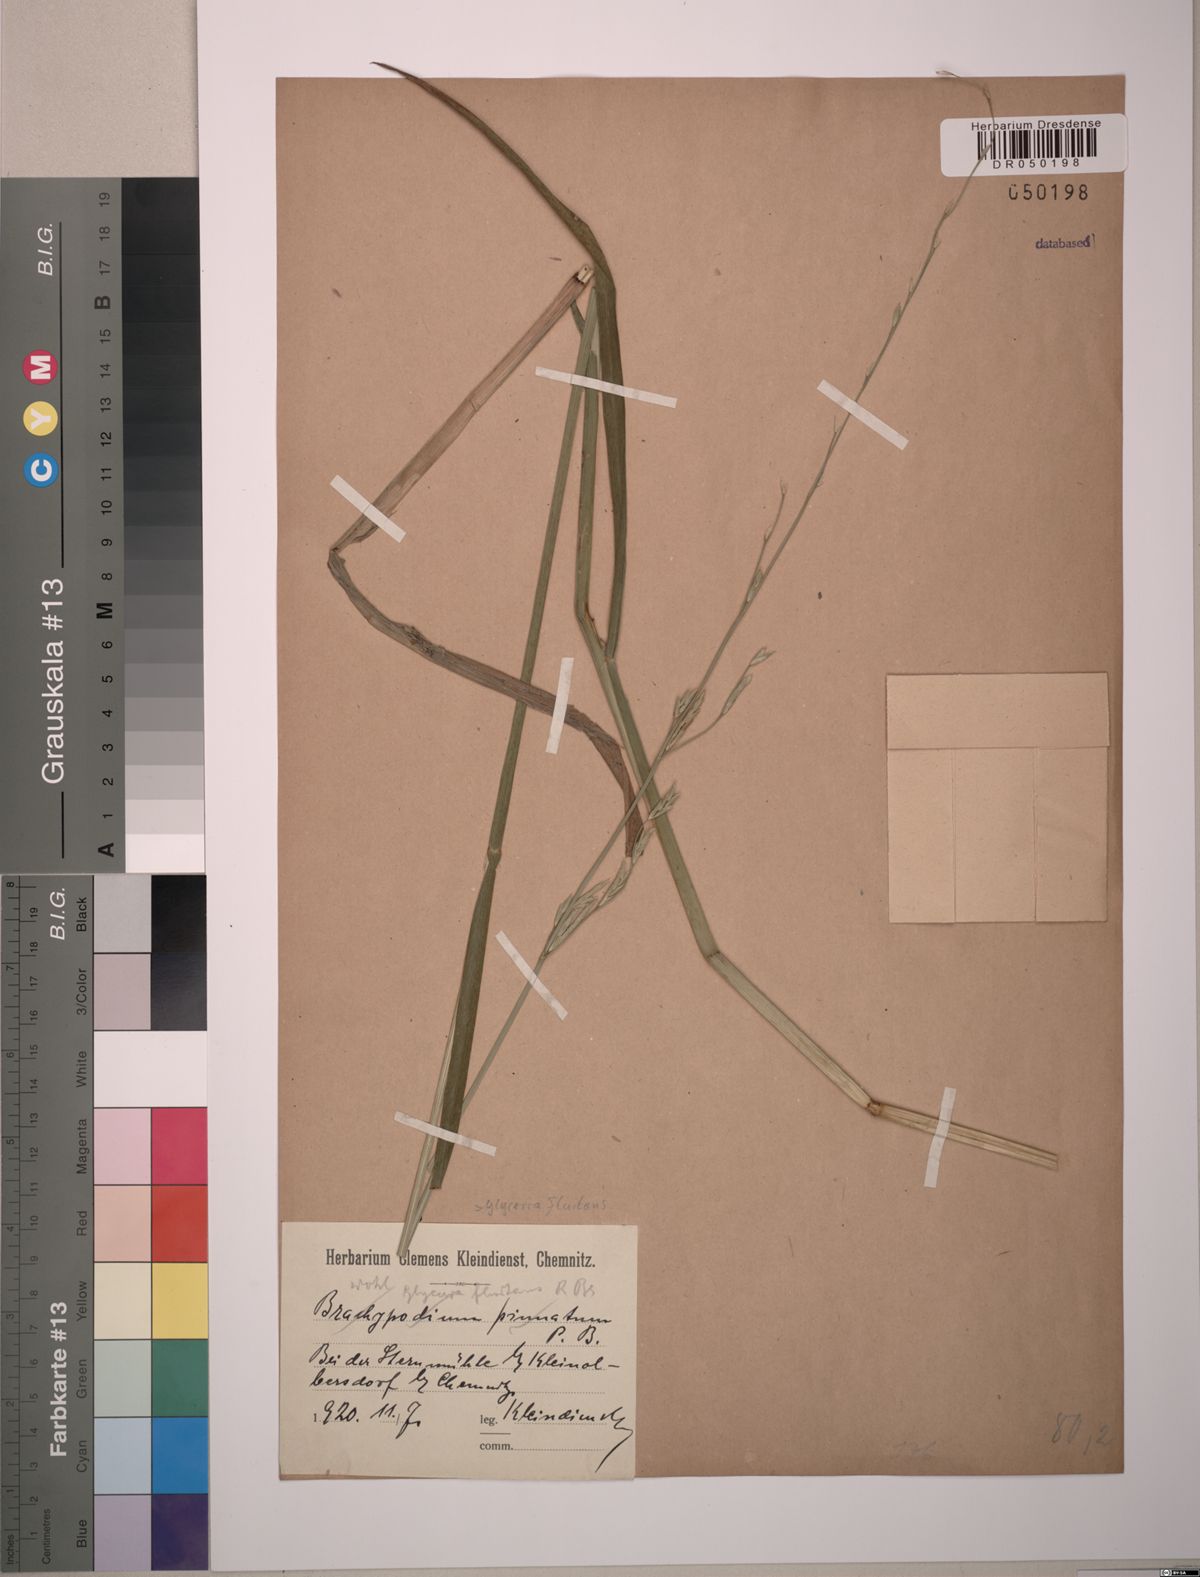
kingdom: Plantae
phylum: Tracheophyta
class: Liliopsida
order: Poales
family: Poaceae
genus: Glyceria
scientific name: Glyceria fluitans
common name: Floating sweet-grass
